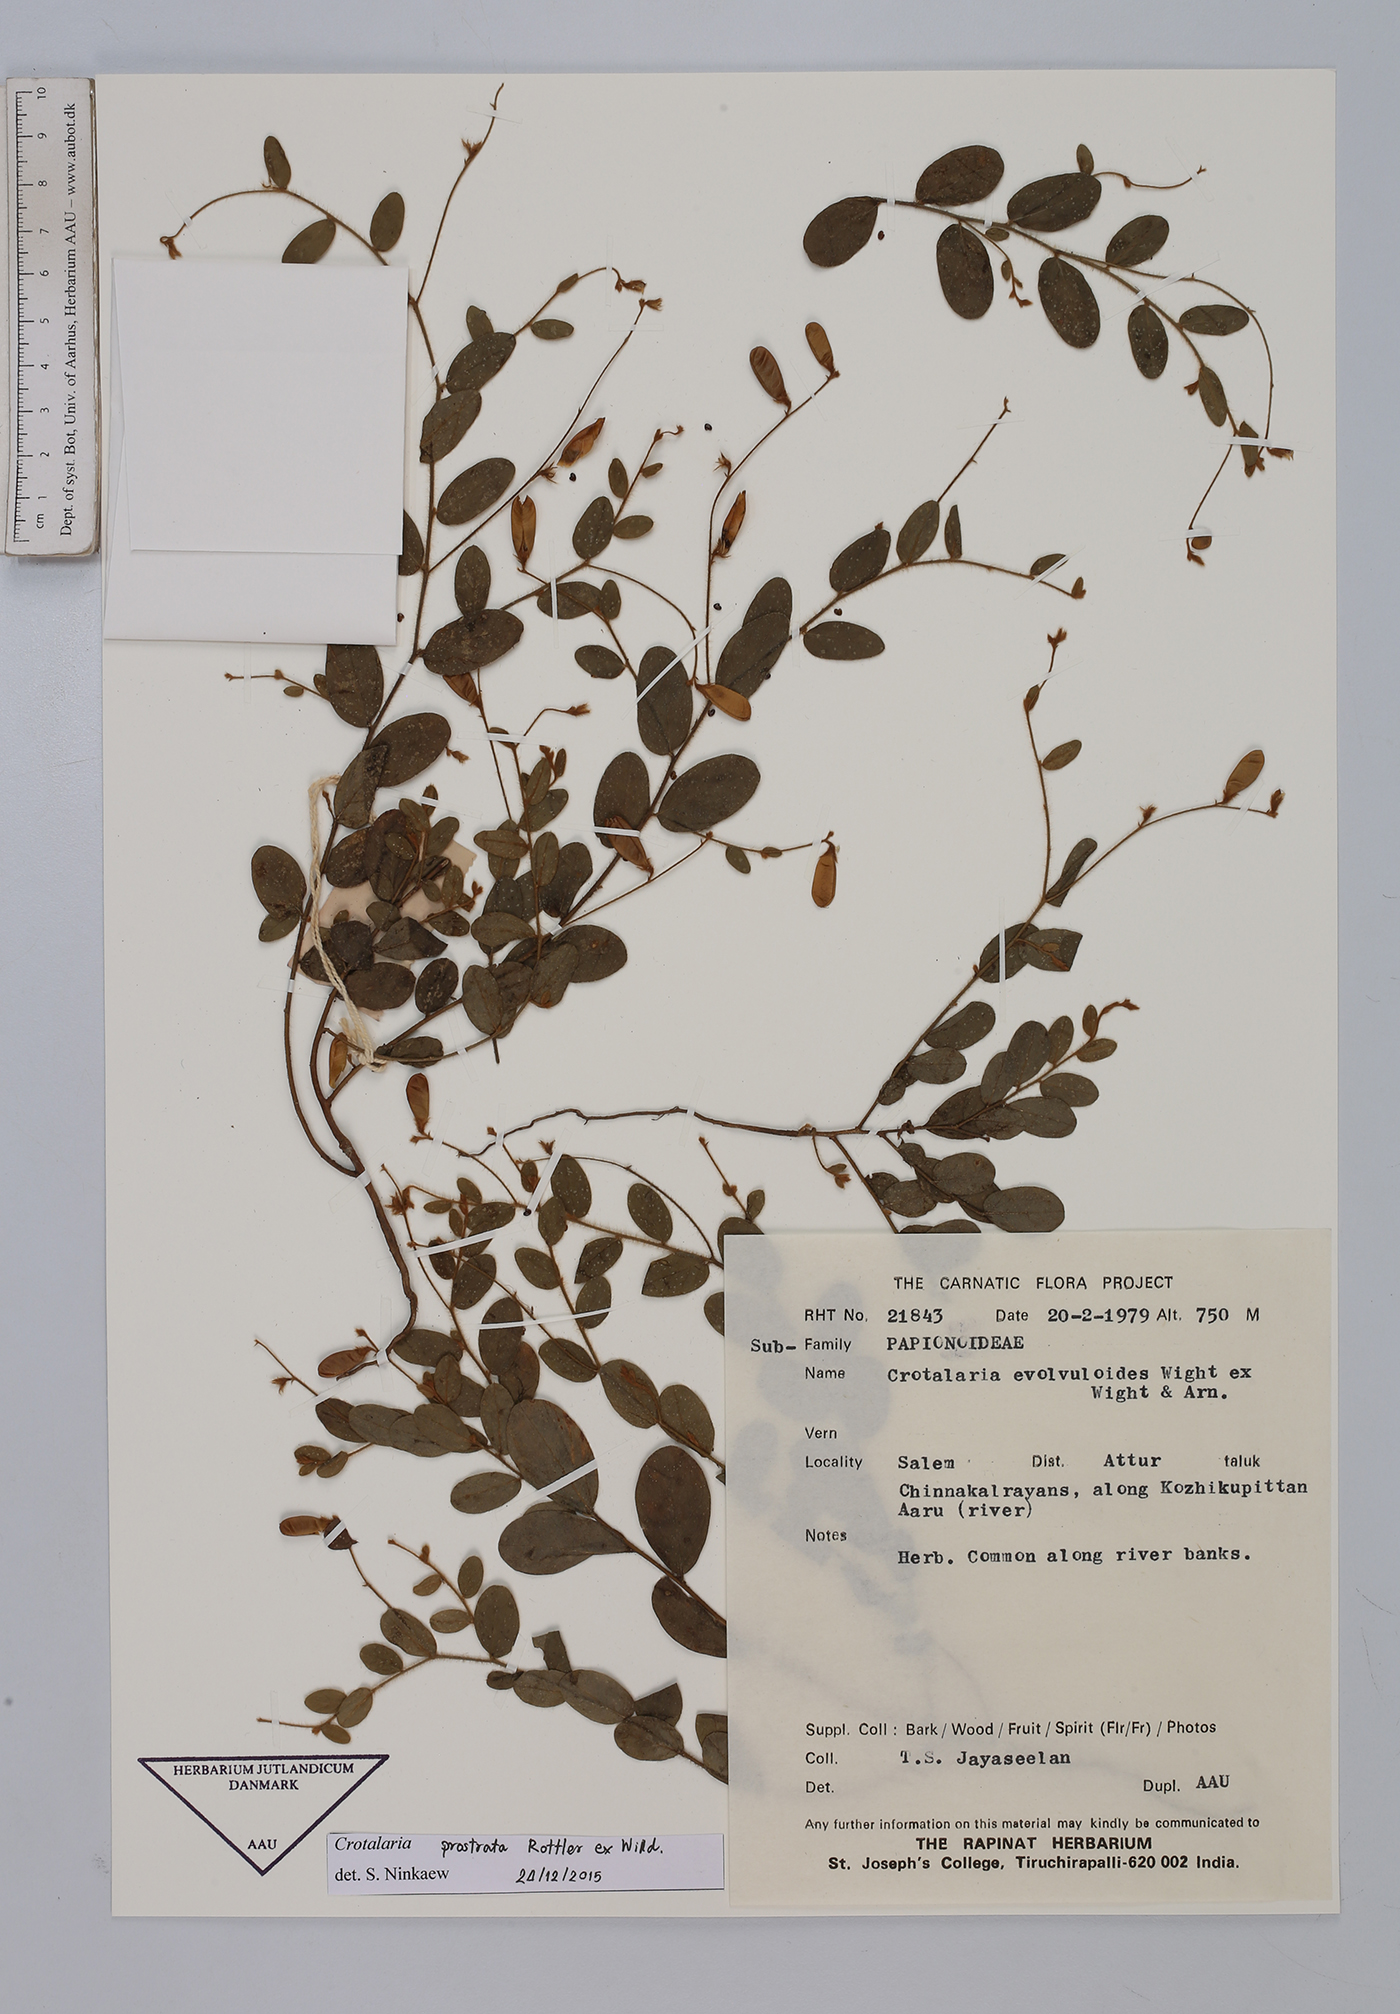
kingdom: Plantae
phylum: Tracheophyta
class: Magnoliopsida
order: Fabales
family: Fabaceae
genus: Crotalaria
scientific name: Crotalaria prostrata
